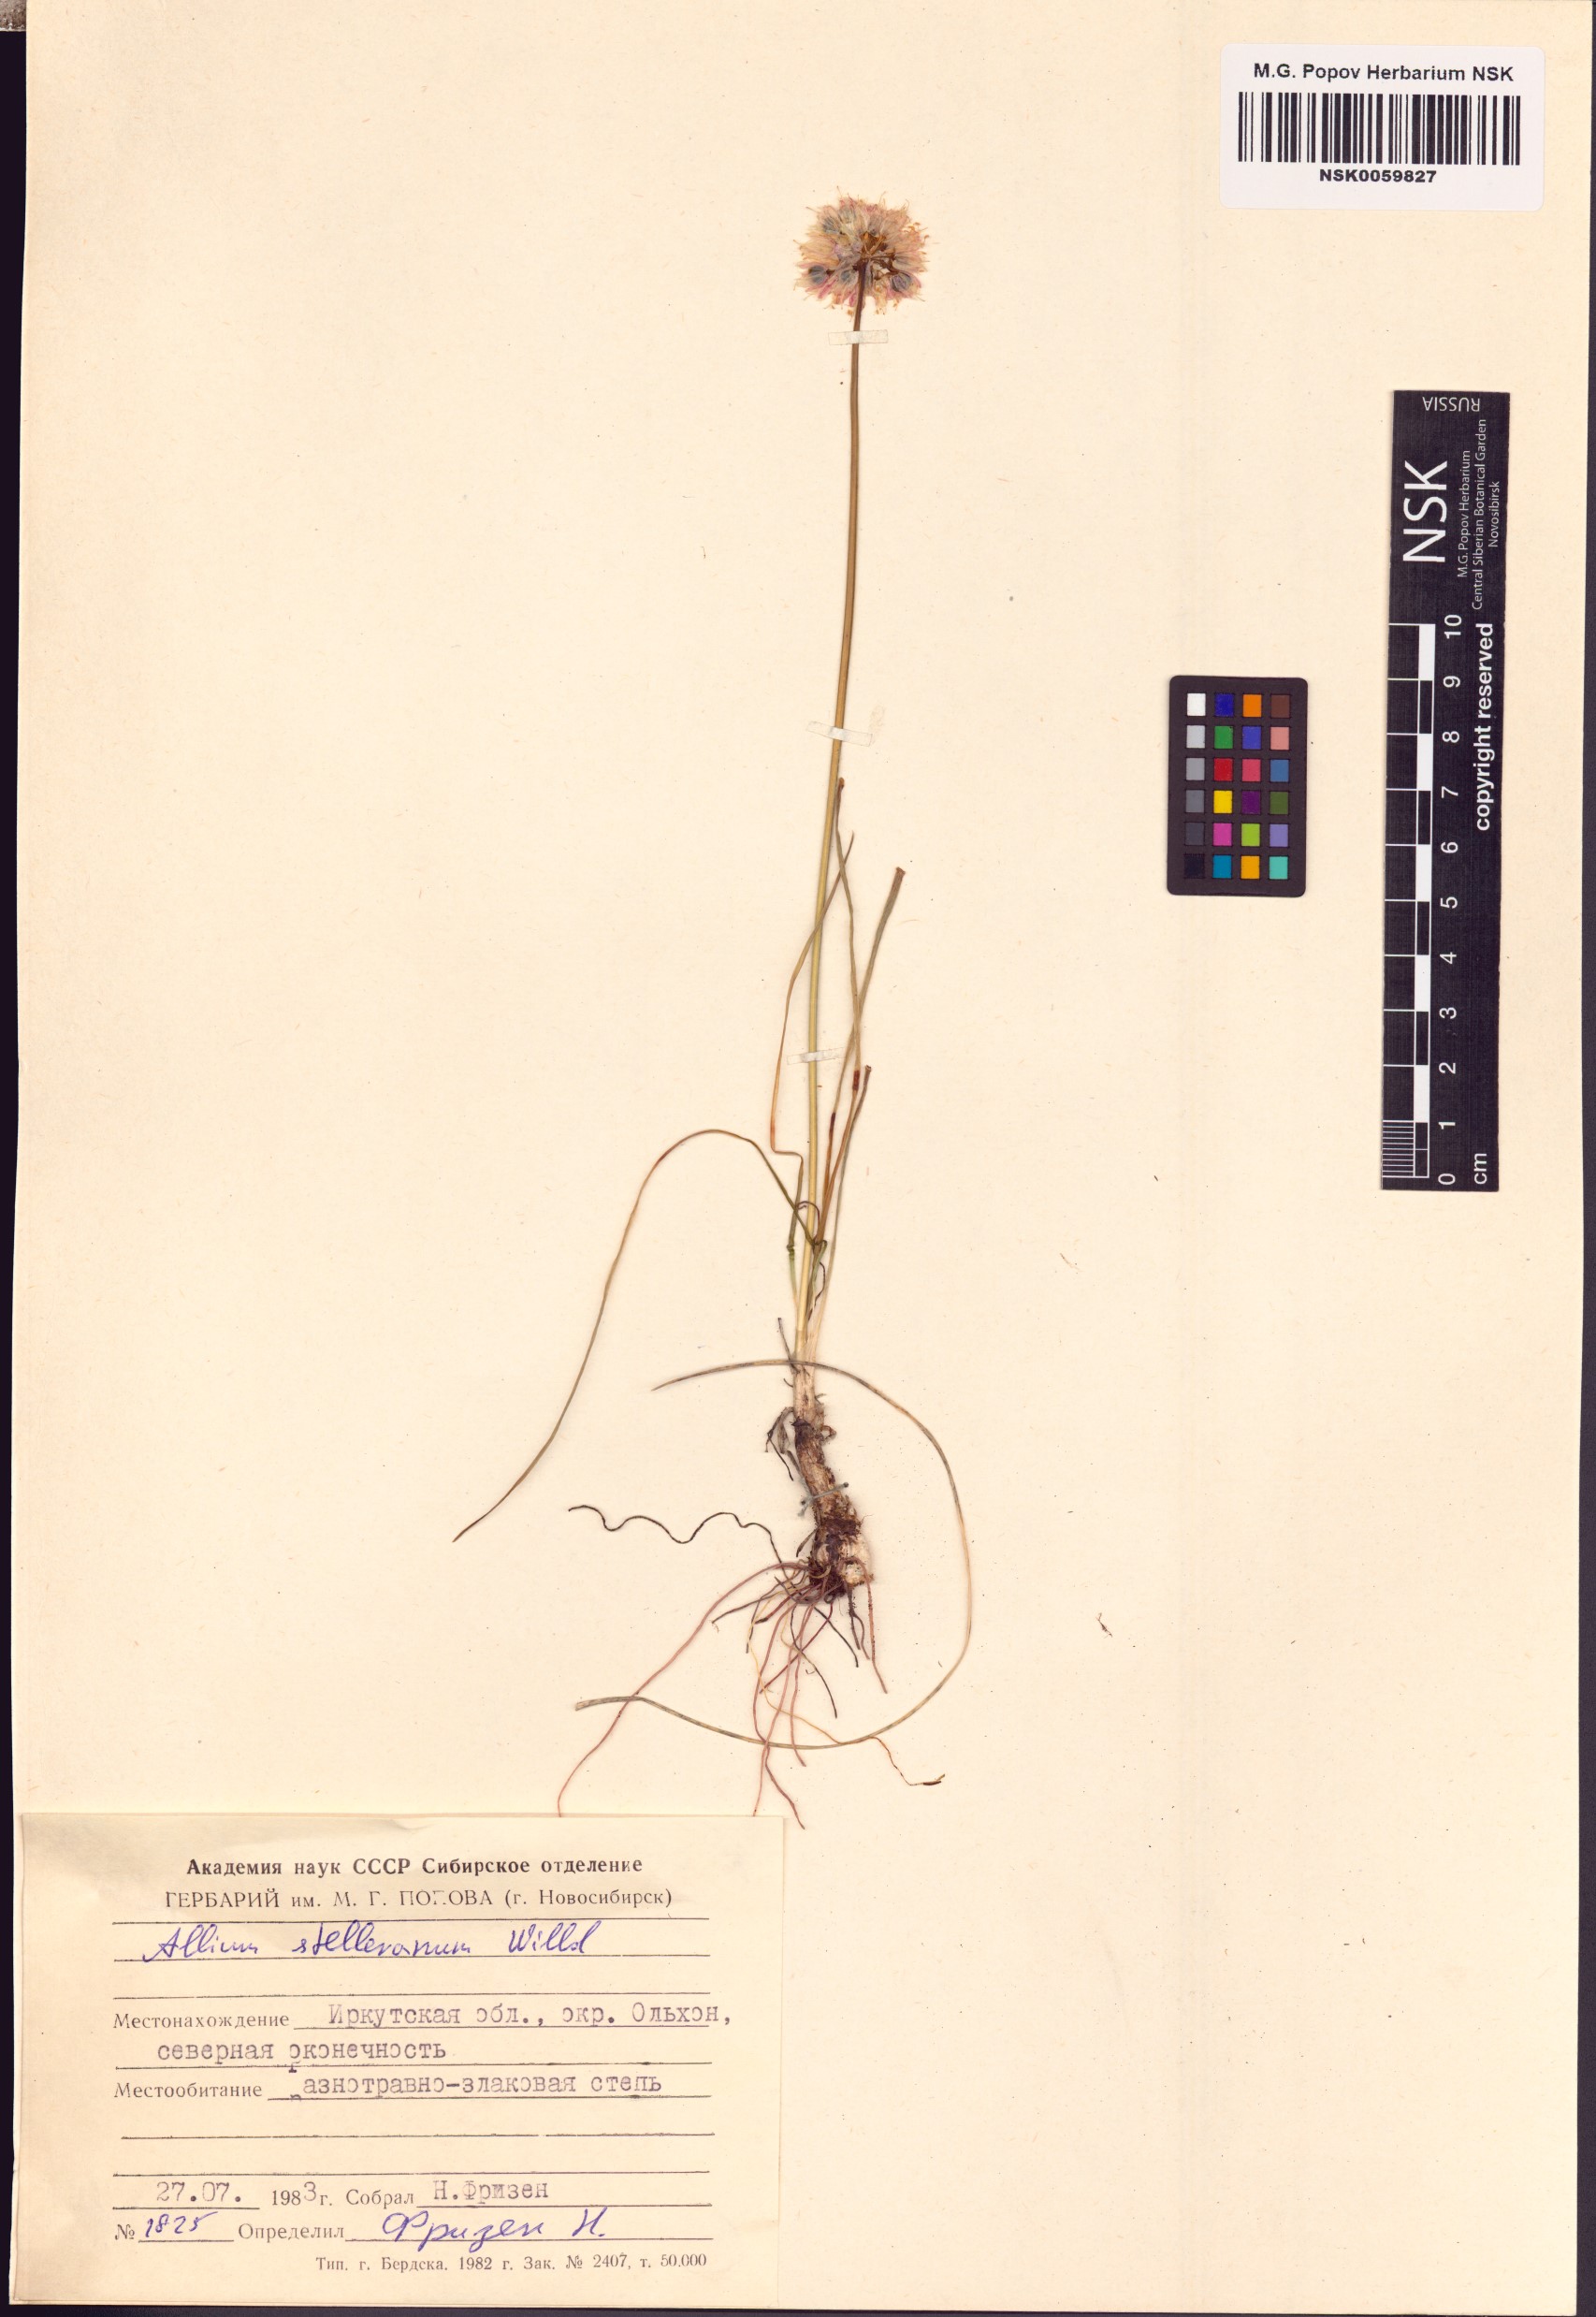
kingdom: Plantae
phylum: Tracheophyta
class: Liliopsida
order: Asparagales
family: Amaryllidaceae
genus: Allium
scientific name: Allium stellerianum
